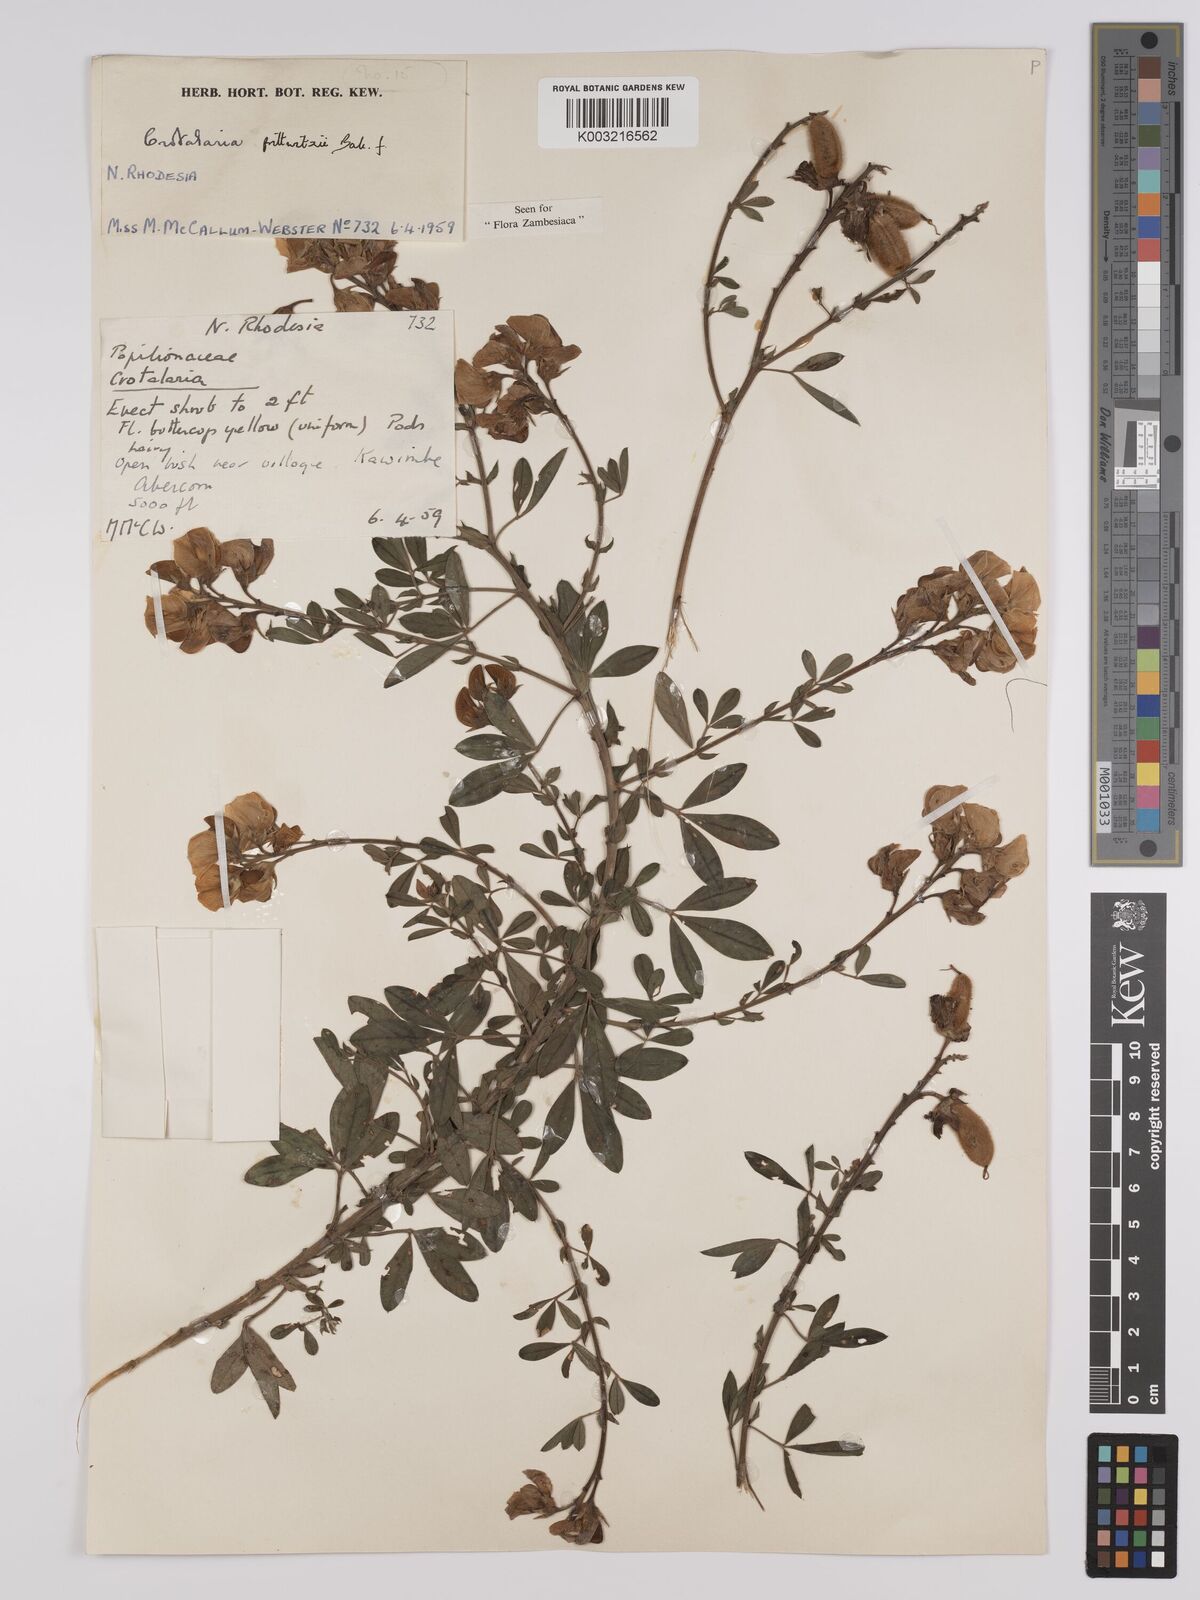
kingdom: Plantae
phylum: Tracheophyta
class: Magnoliopsida
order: Fabales
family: Fabaceae
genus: Crotalaria
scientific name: Crotalaria prittwitzii
